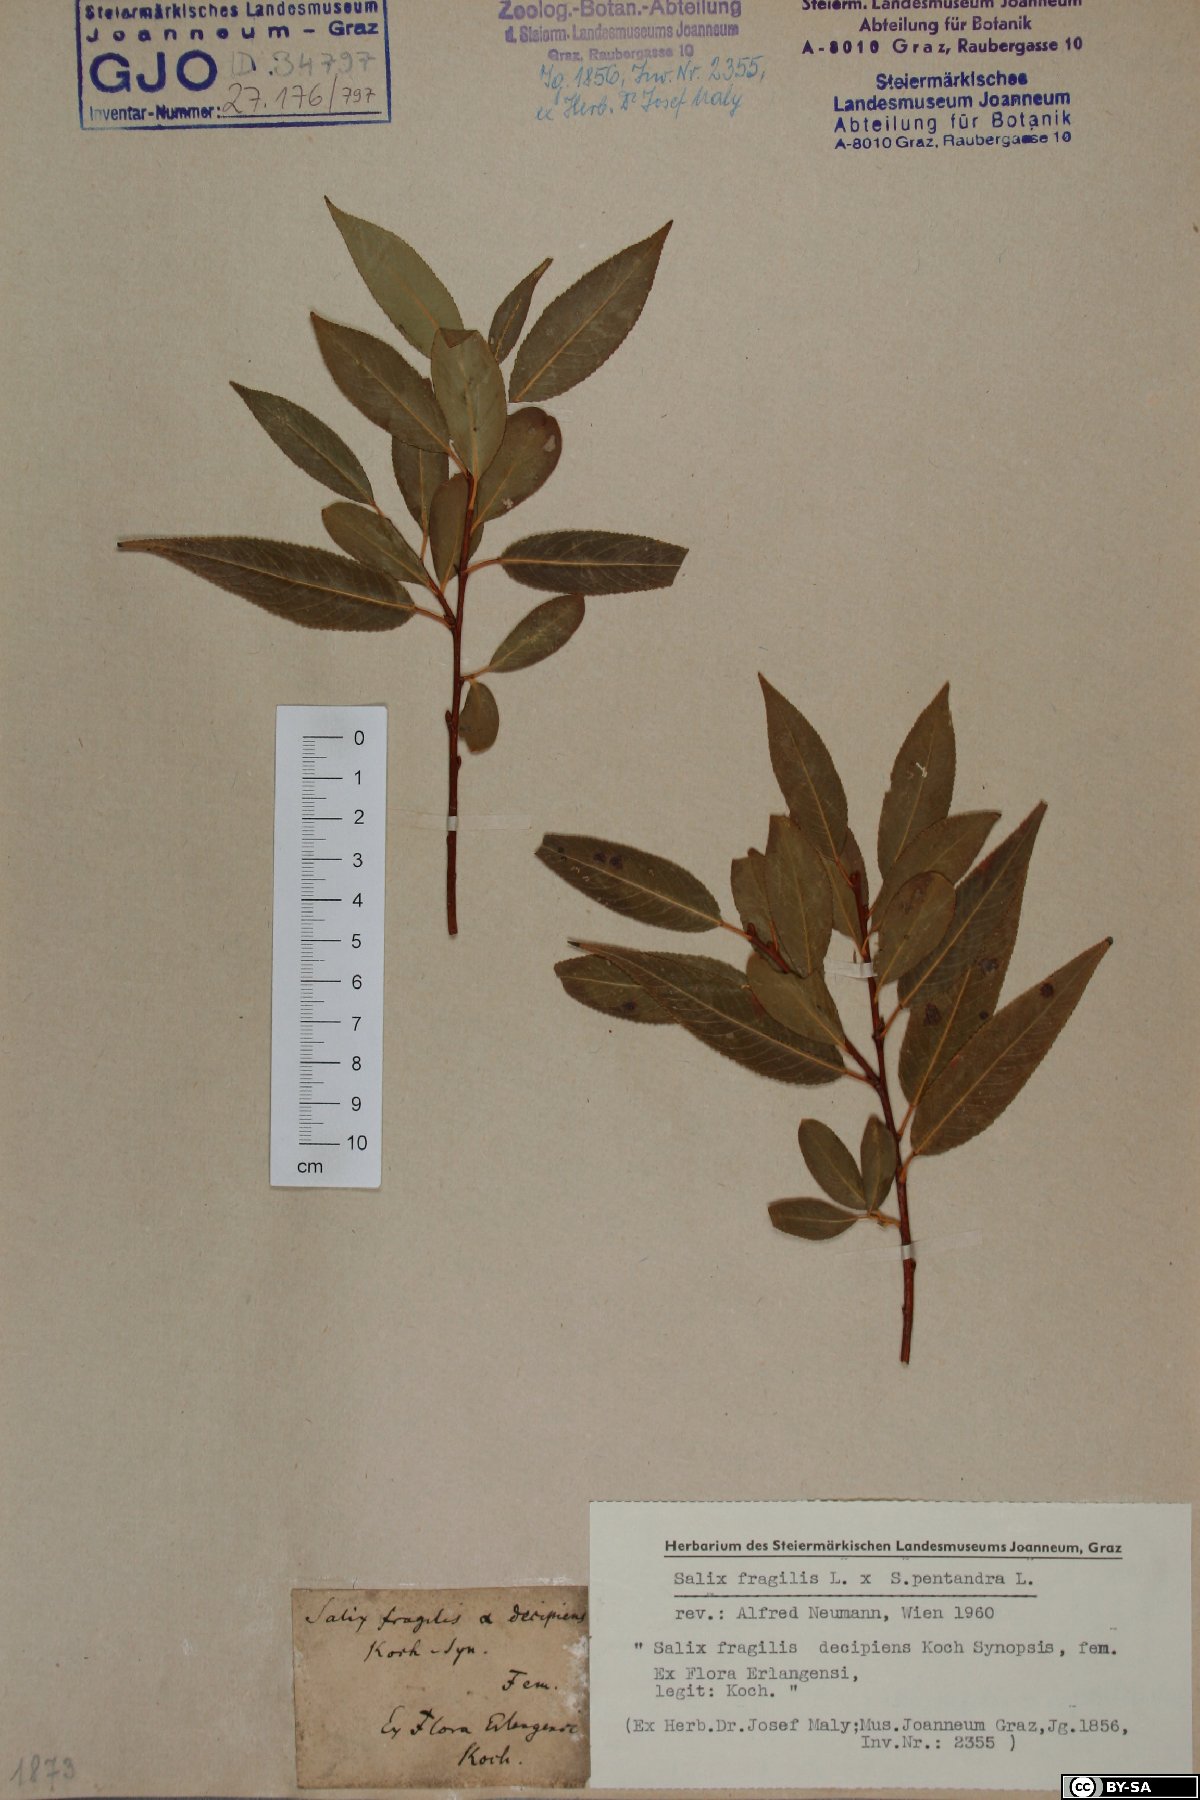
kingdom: Plantae
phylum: Tracheophyta
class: Magnoliopsida
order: Malpighiales
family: Salicaceae
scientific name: Salicaceae
